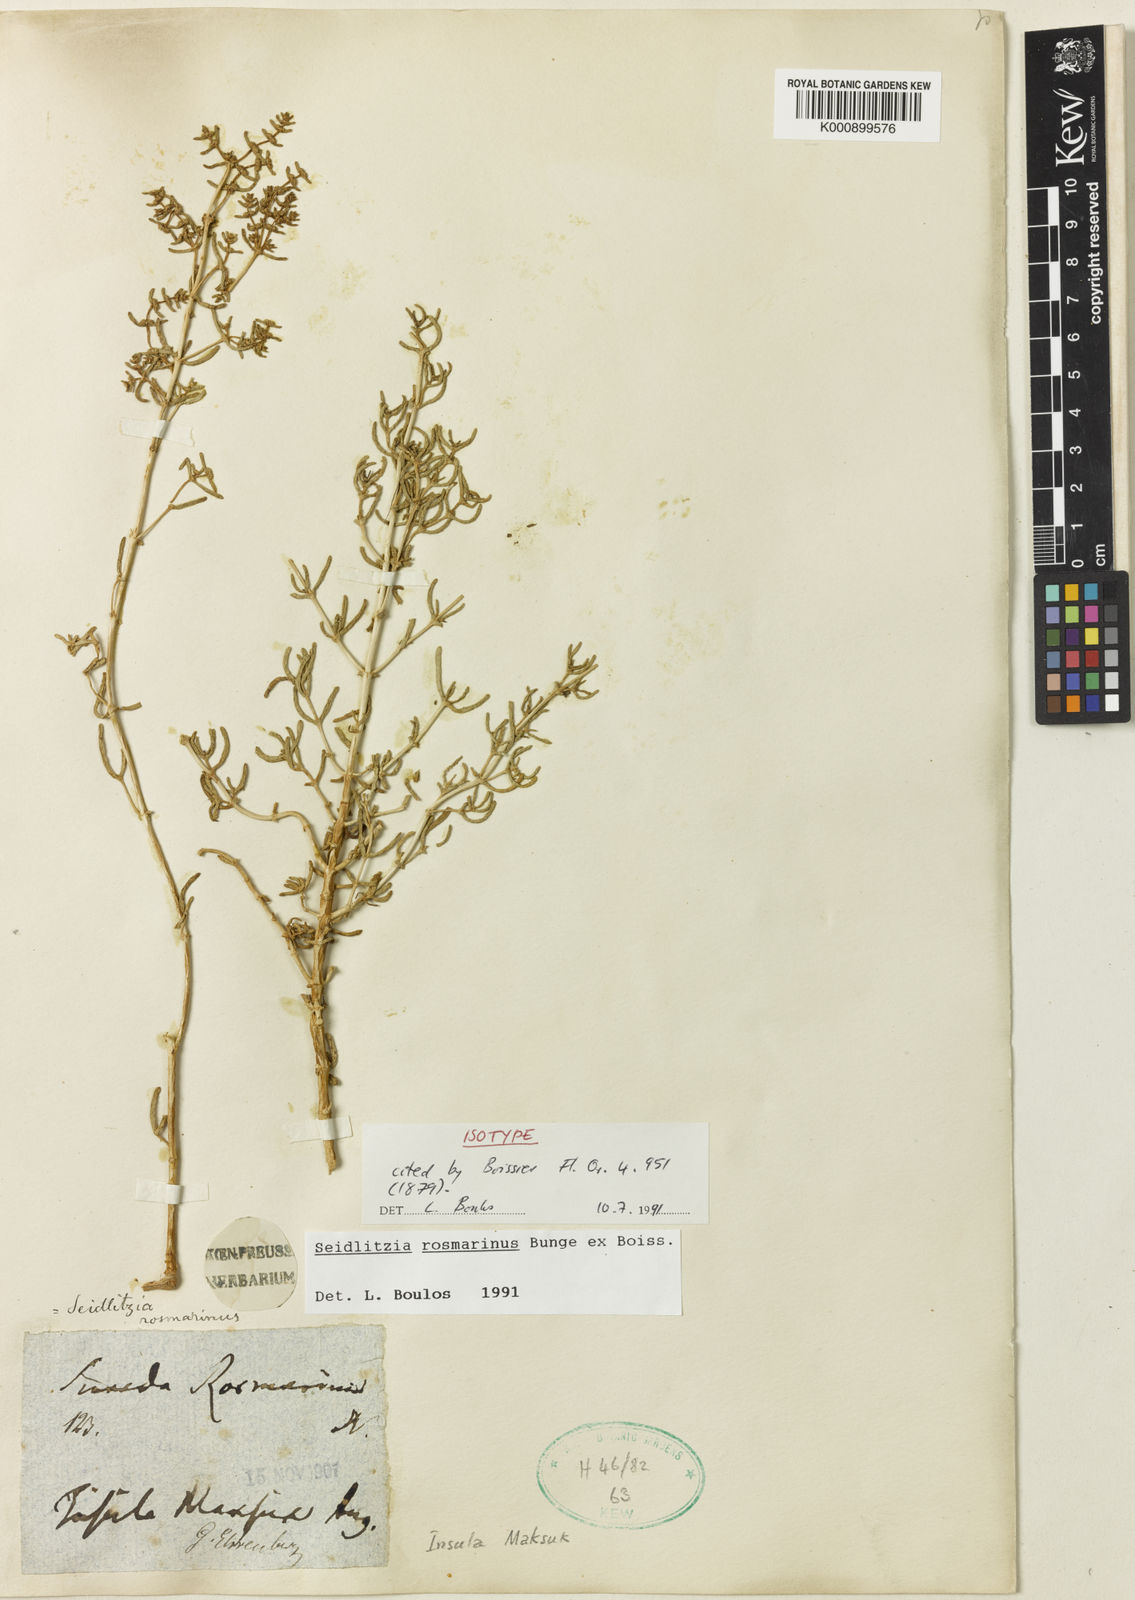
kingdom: Plantae
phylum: Tracheophyta
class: Magnoliopsida
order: Caryophyllales
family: Amaranthaceae
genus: Soda
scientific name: Soda rosmarinus
